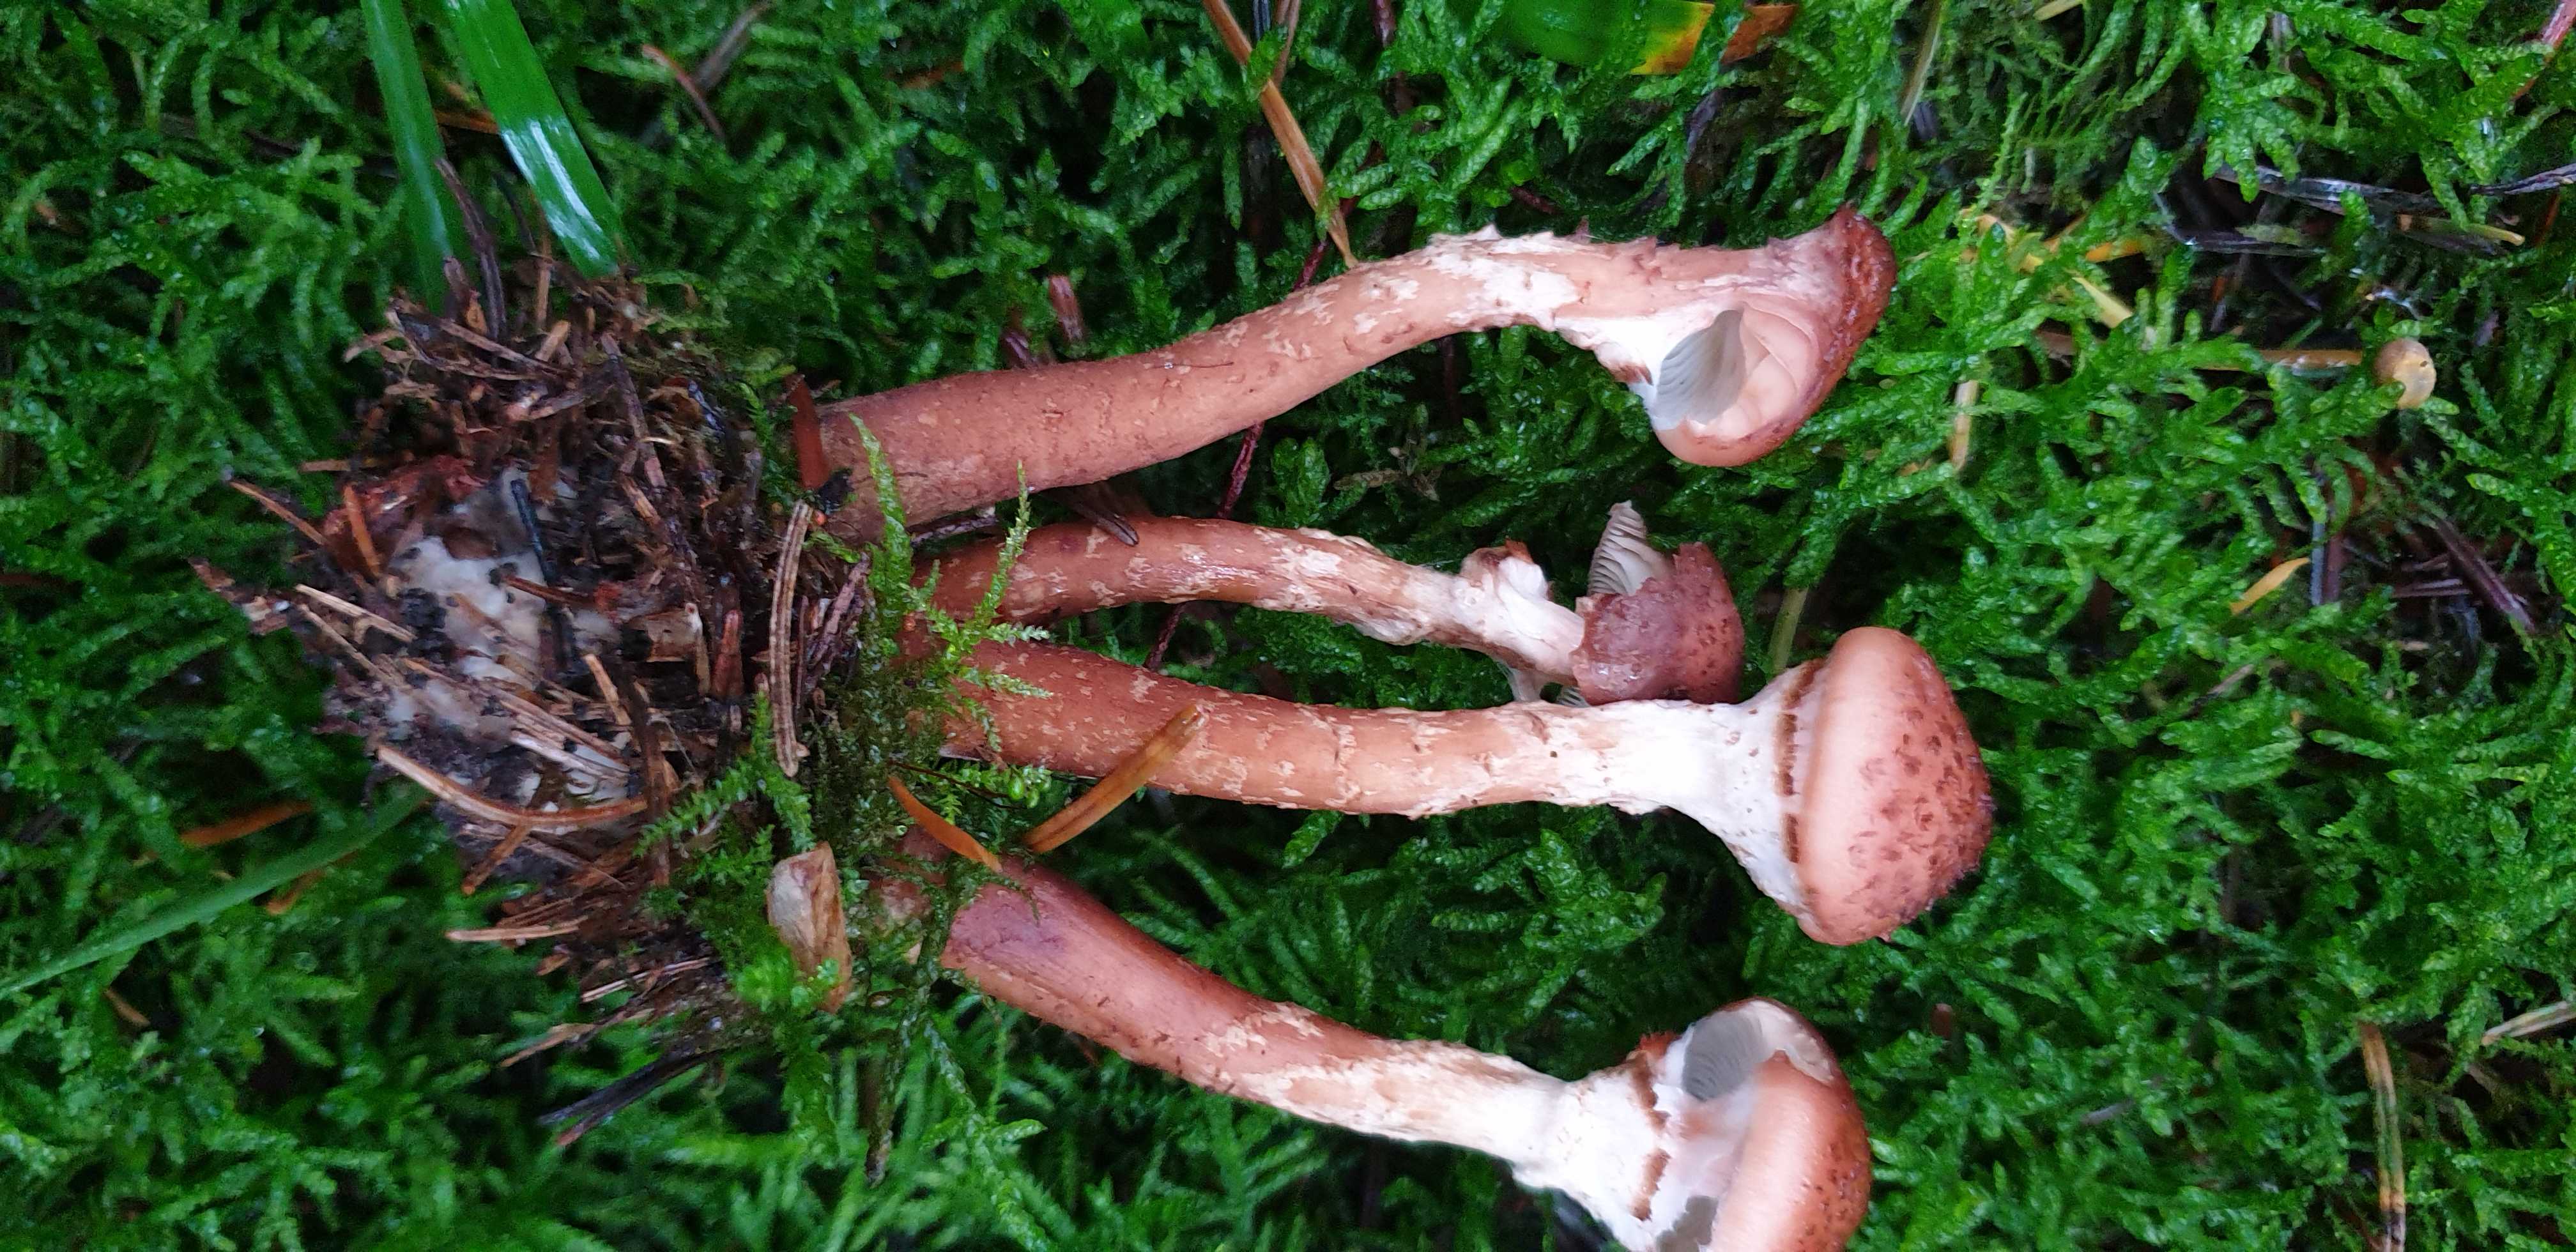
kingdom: Fungi
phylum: Basidiomycota
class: Agaricomycetes
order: Agaricales
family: Physalacriaceae
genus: Armillaria
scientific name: Armillaria ostoyae
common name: mørk honningsvamp
